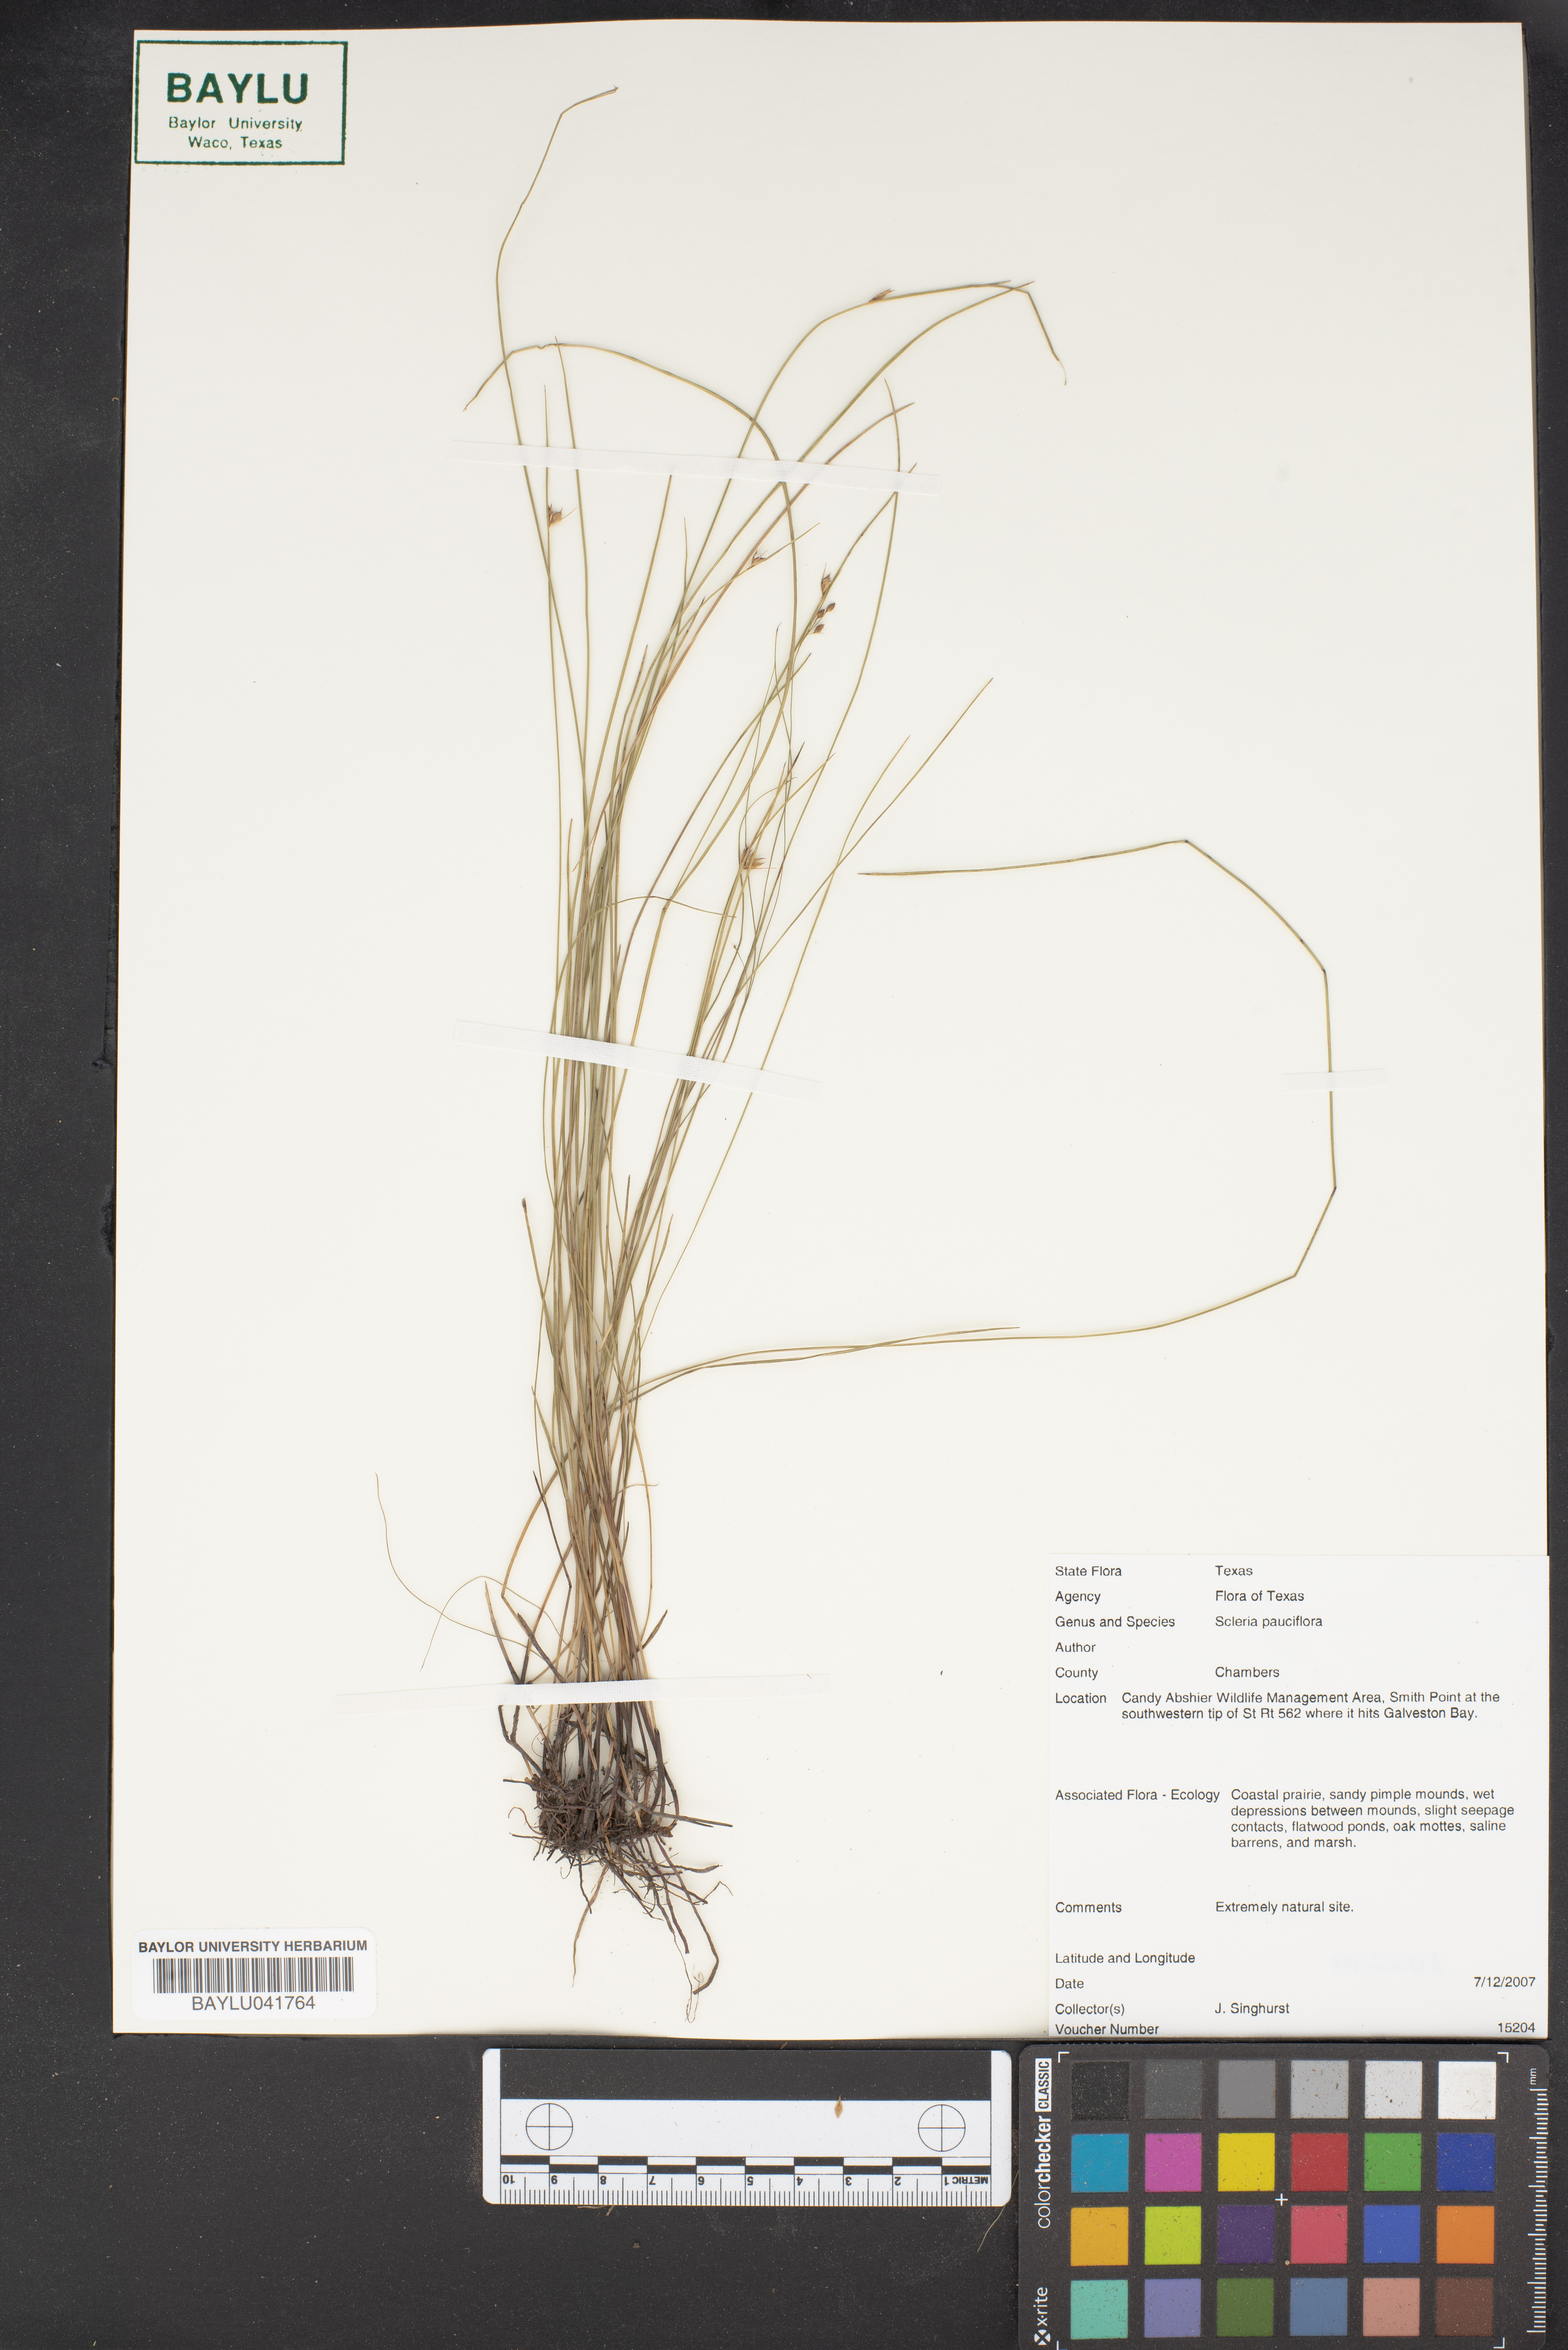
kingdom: Plantae
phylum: Tracheophyta
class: Liliopsida
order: Poales
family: Cyperaceae
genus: Scleria
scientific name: Scleria pauciflora
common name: Few-flowered nutrush
